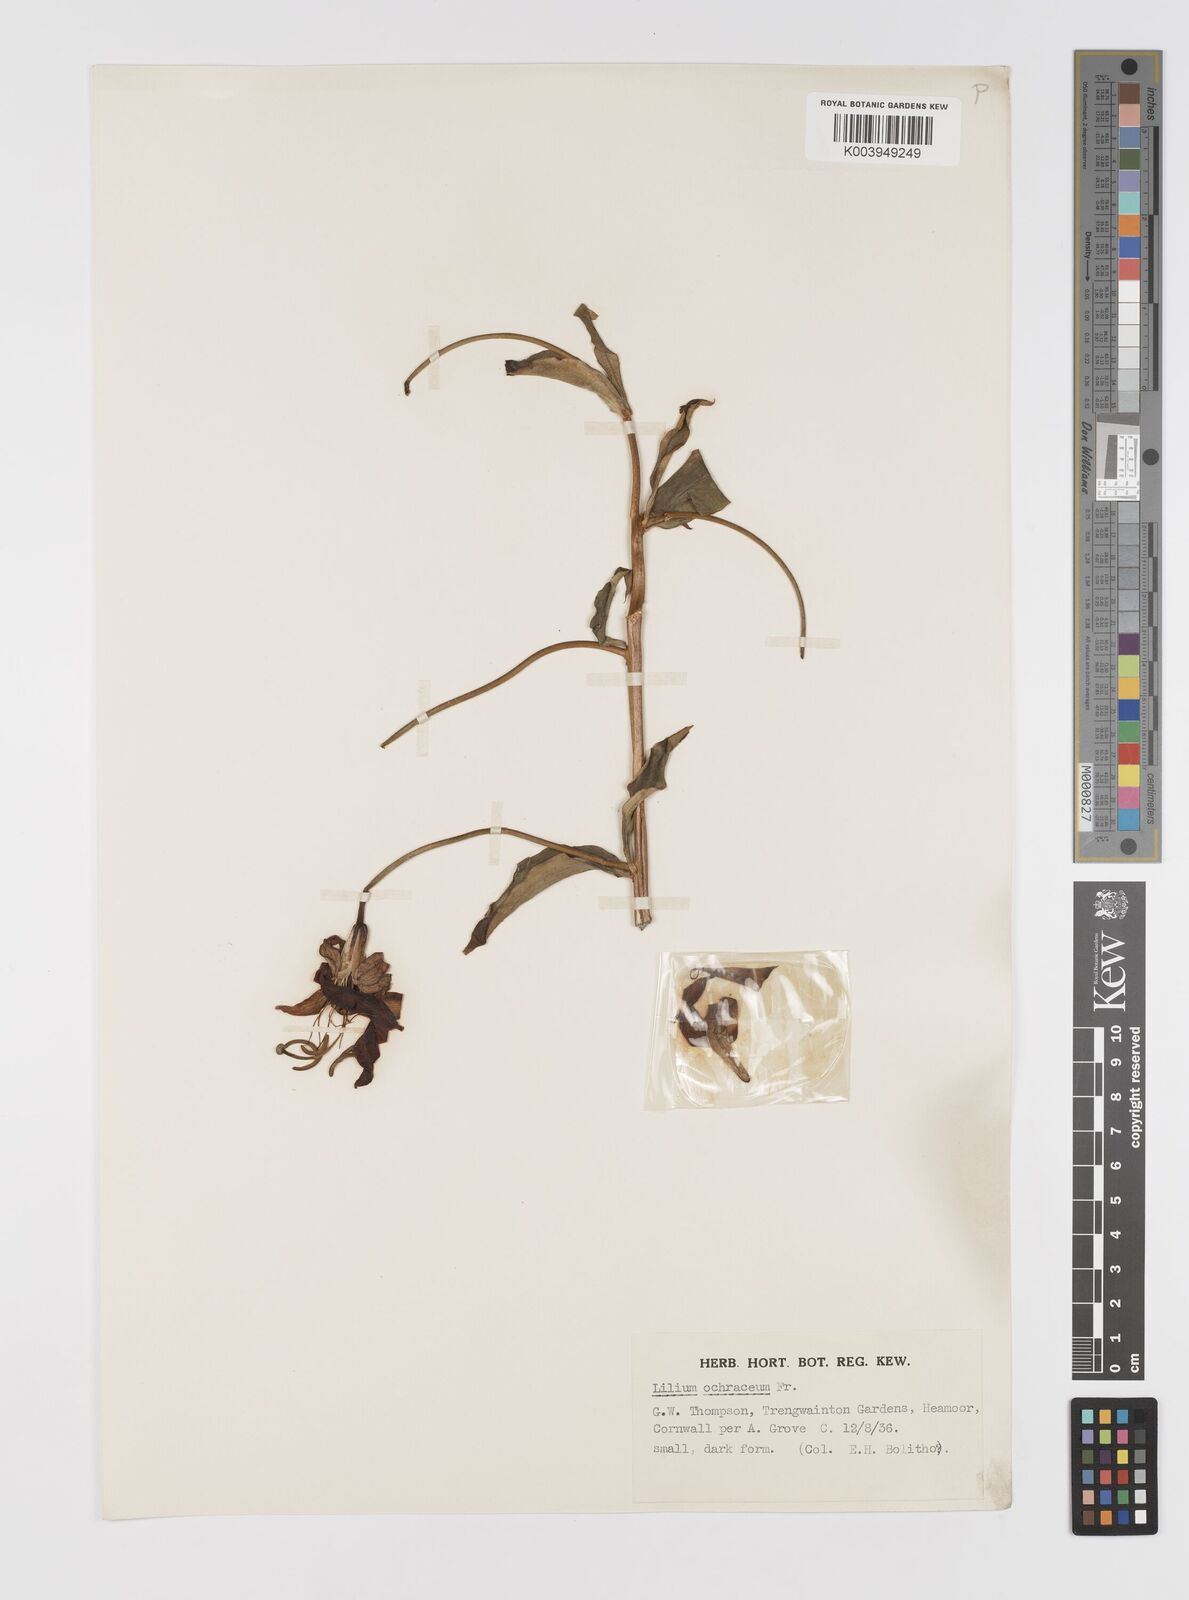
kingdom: Plantae
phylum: Tracheophyta
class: Liliopsida
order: Liliales
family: Liliaceae
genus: Lilium
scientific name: Lilium primulinum
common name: Ochre lily
